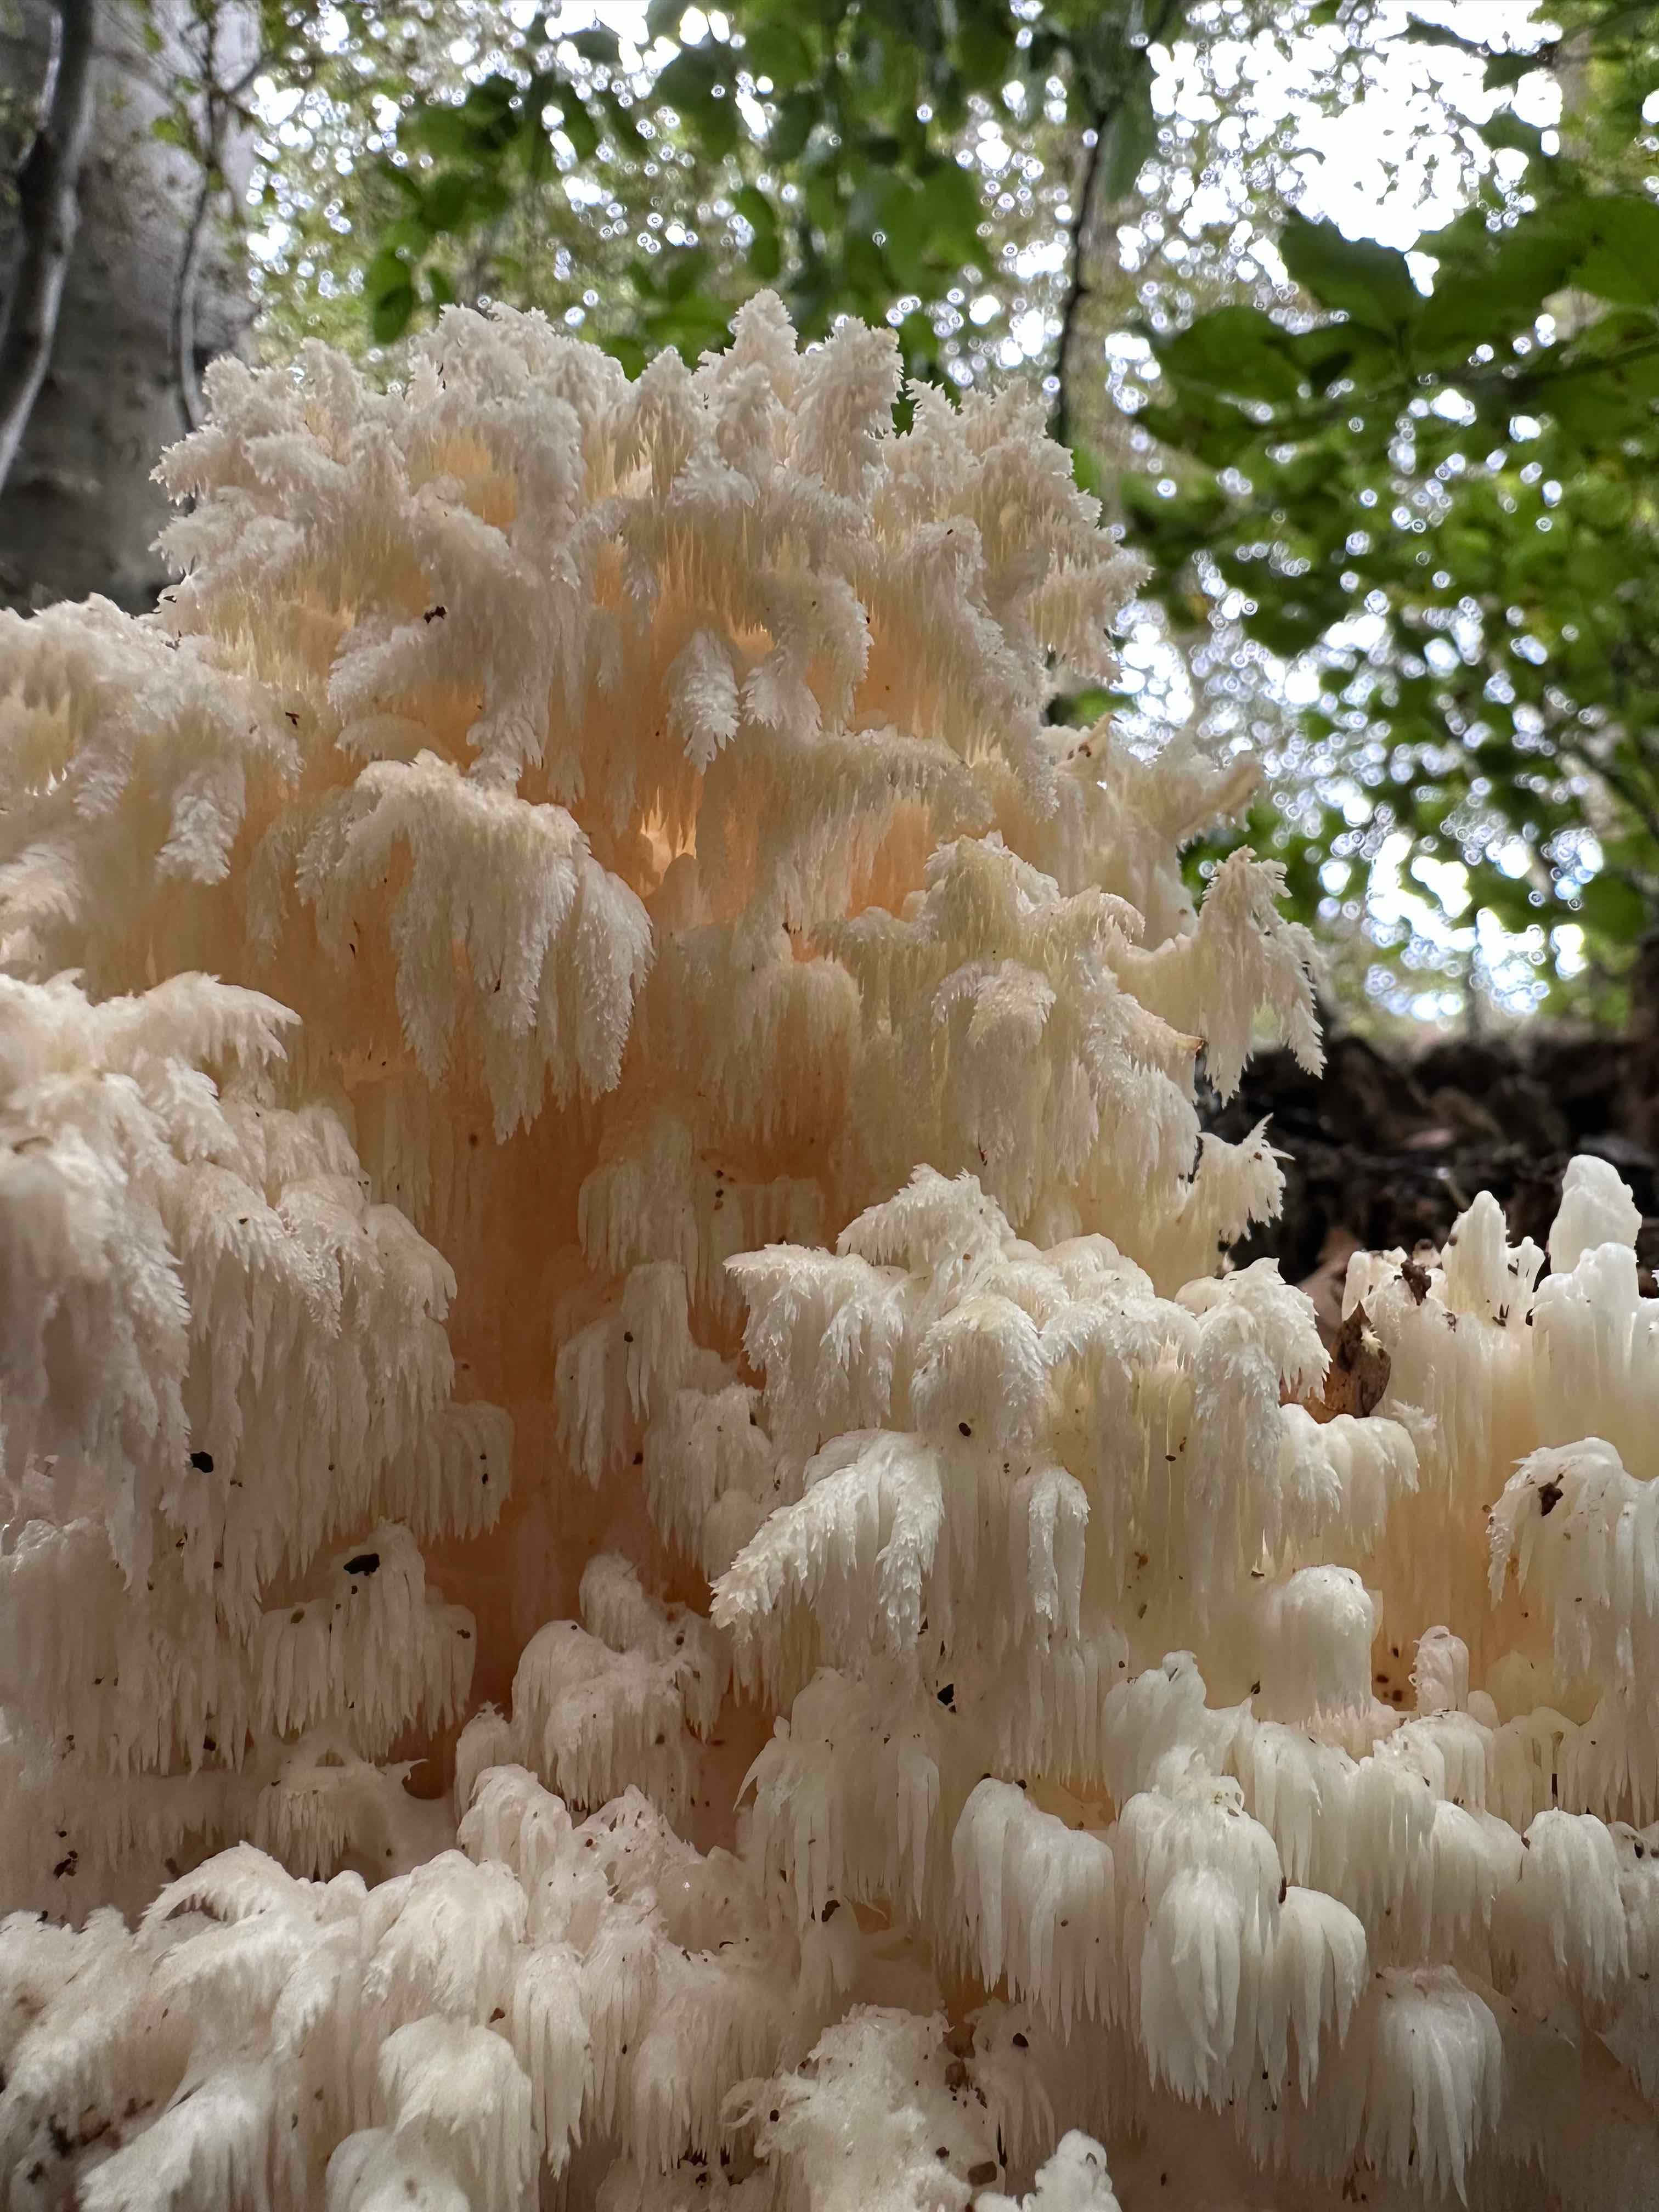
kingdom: Fungi
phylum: Basidiomycota
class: Agaricomycetes
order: Russulales
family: Hericiaceae
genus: Hericium
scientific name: Hericium coralloides
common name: koralpigsvamp
